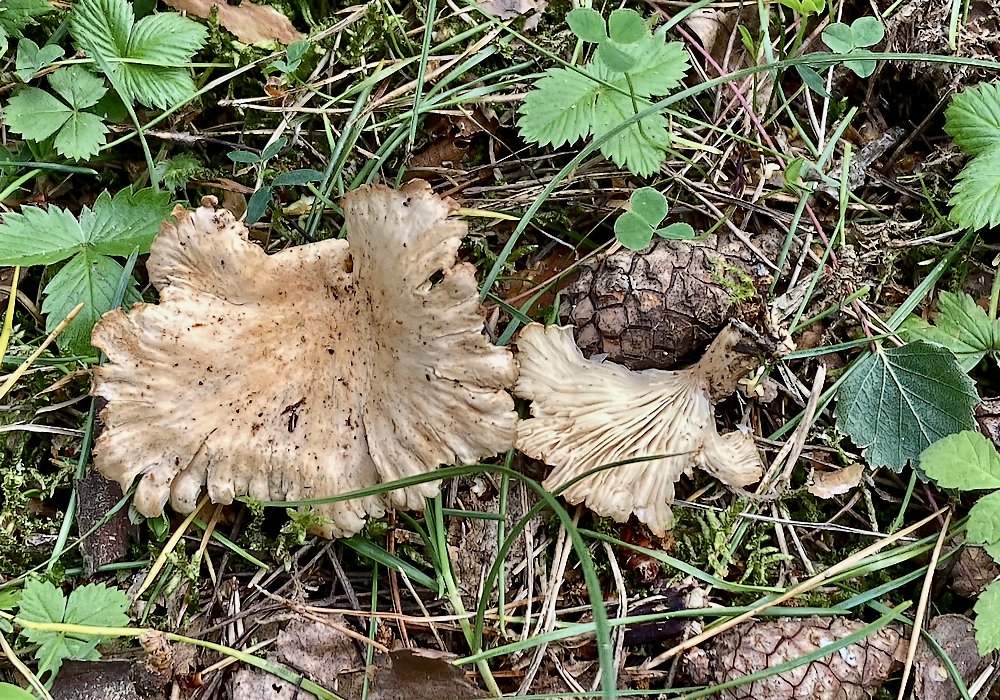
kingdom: Fungi
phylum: Basidiomycota
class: Agaricomycetes
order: Agaricales
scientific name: Agaricales
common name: champignonordenen
